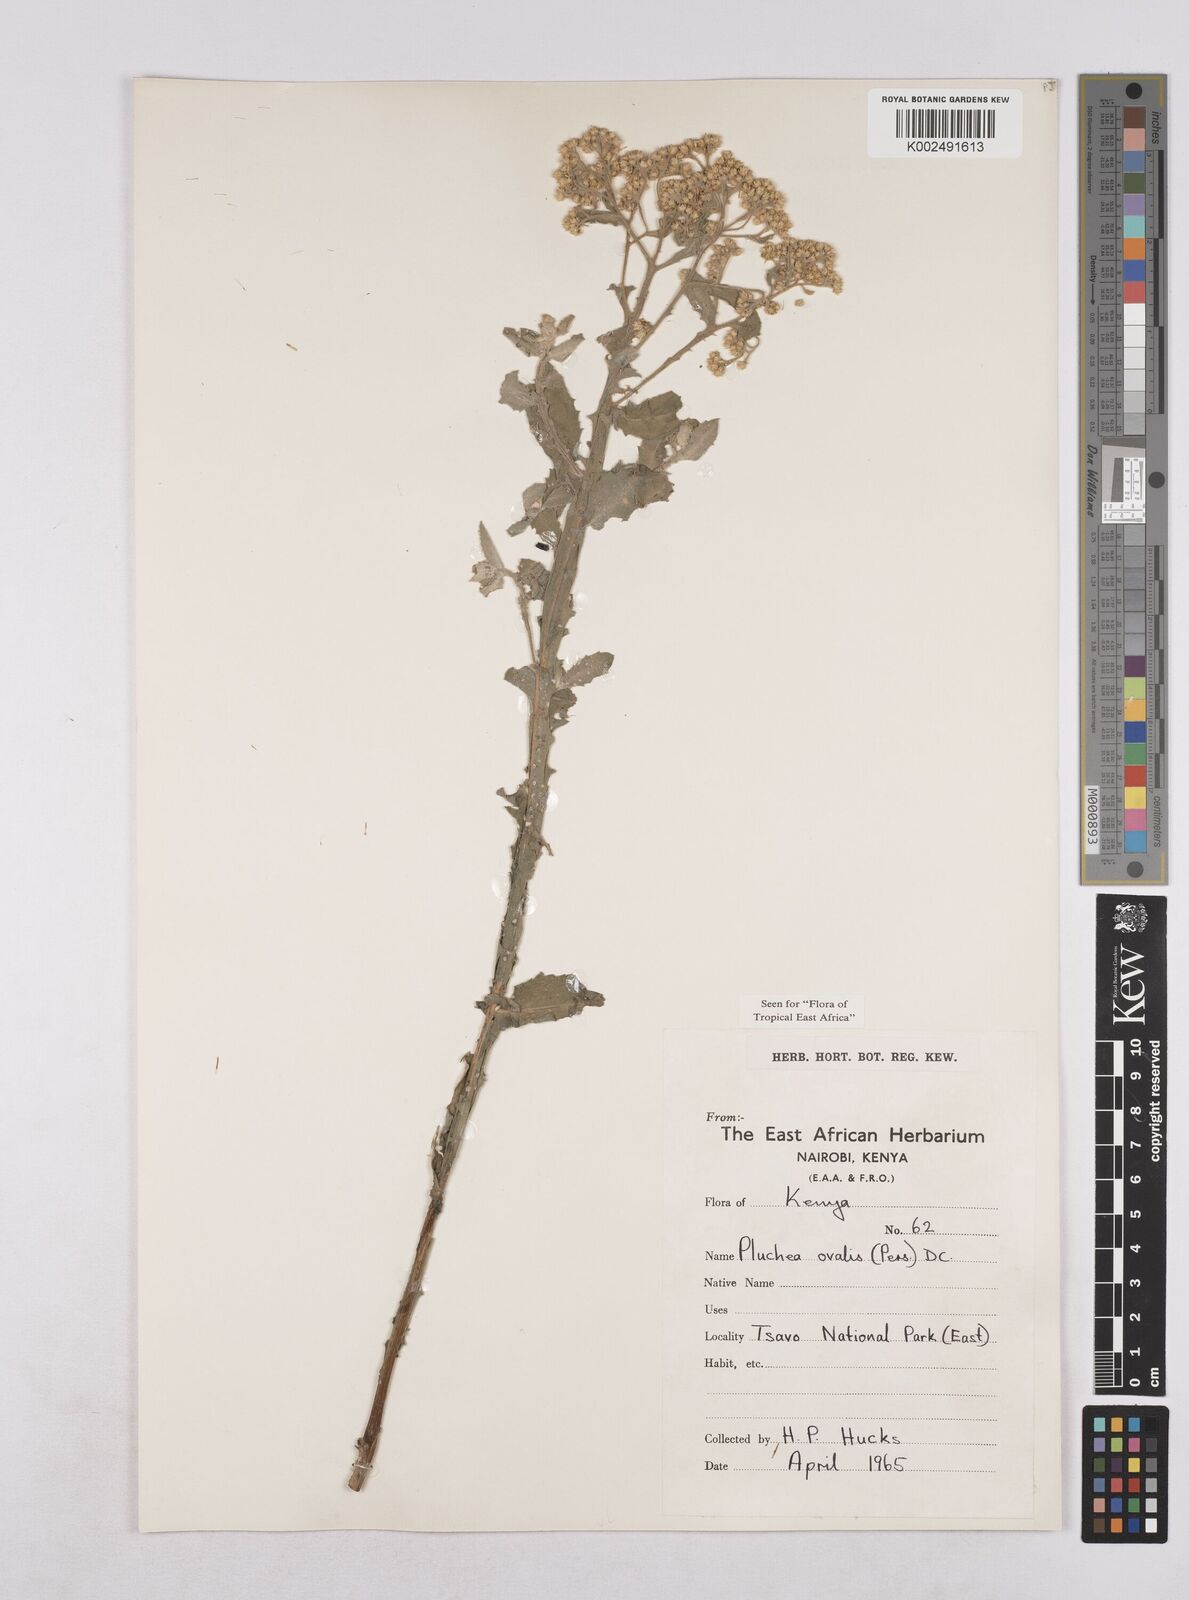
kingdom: Plantae
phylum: Tracheophyta
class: Magnoliopsida
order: Asterales
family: Asteraceae
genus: Pluchea
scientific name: Pluchea ovalis
